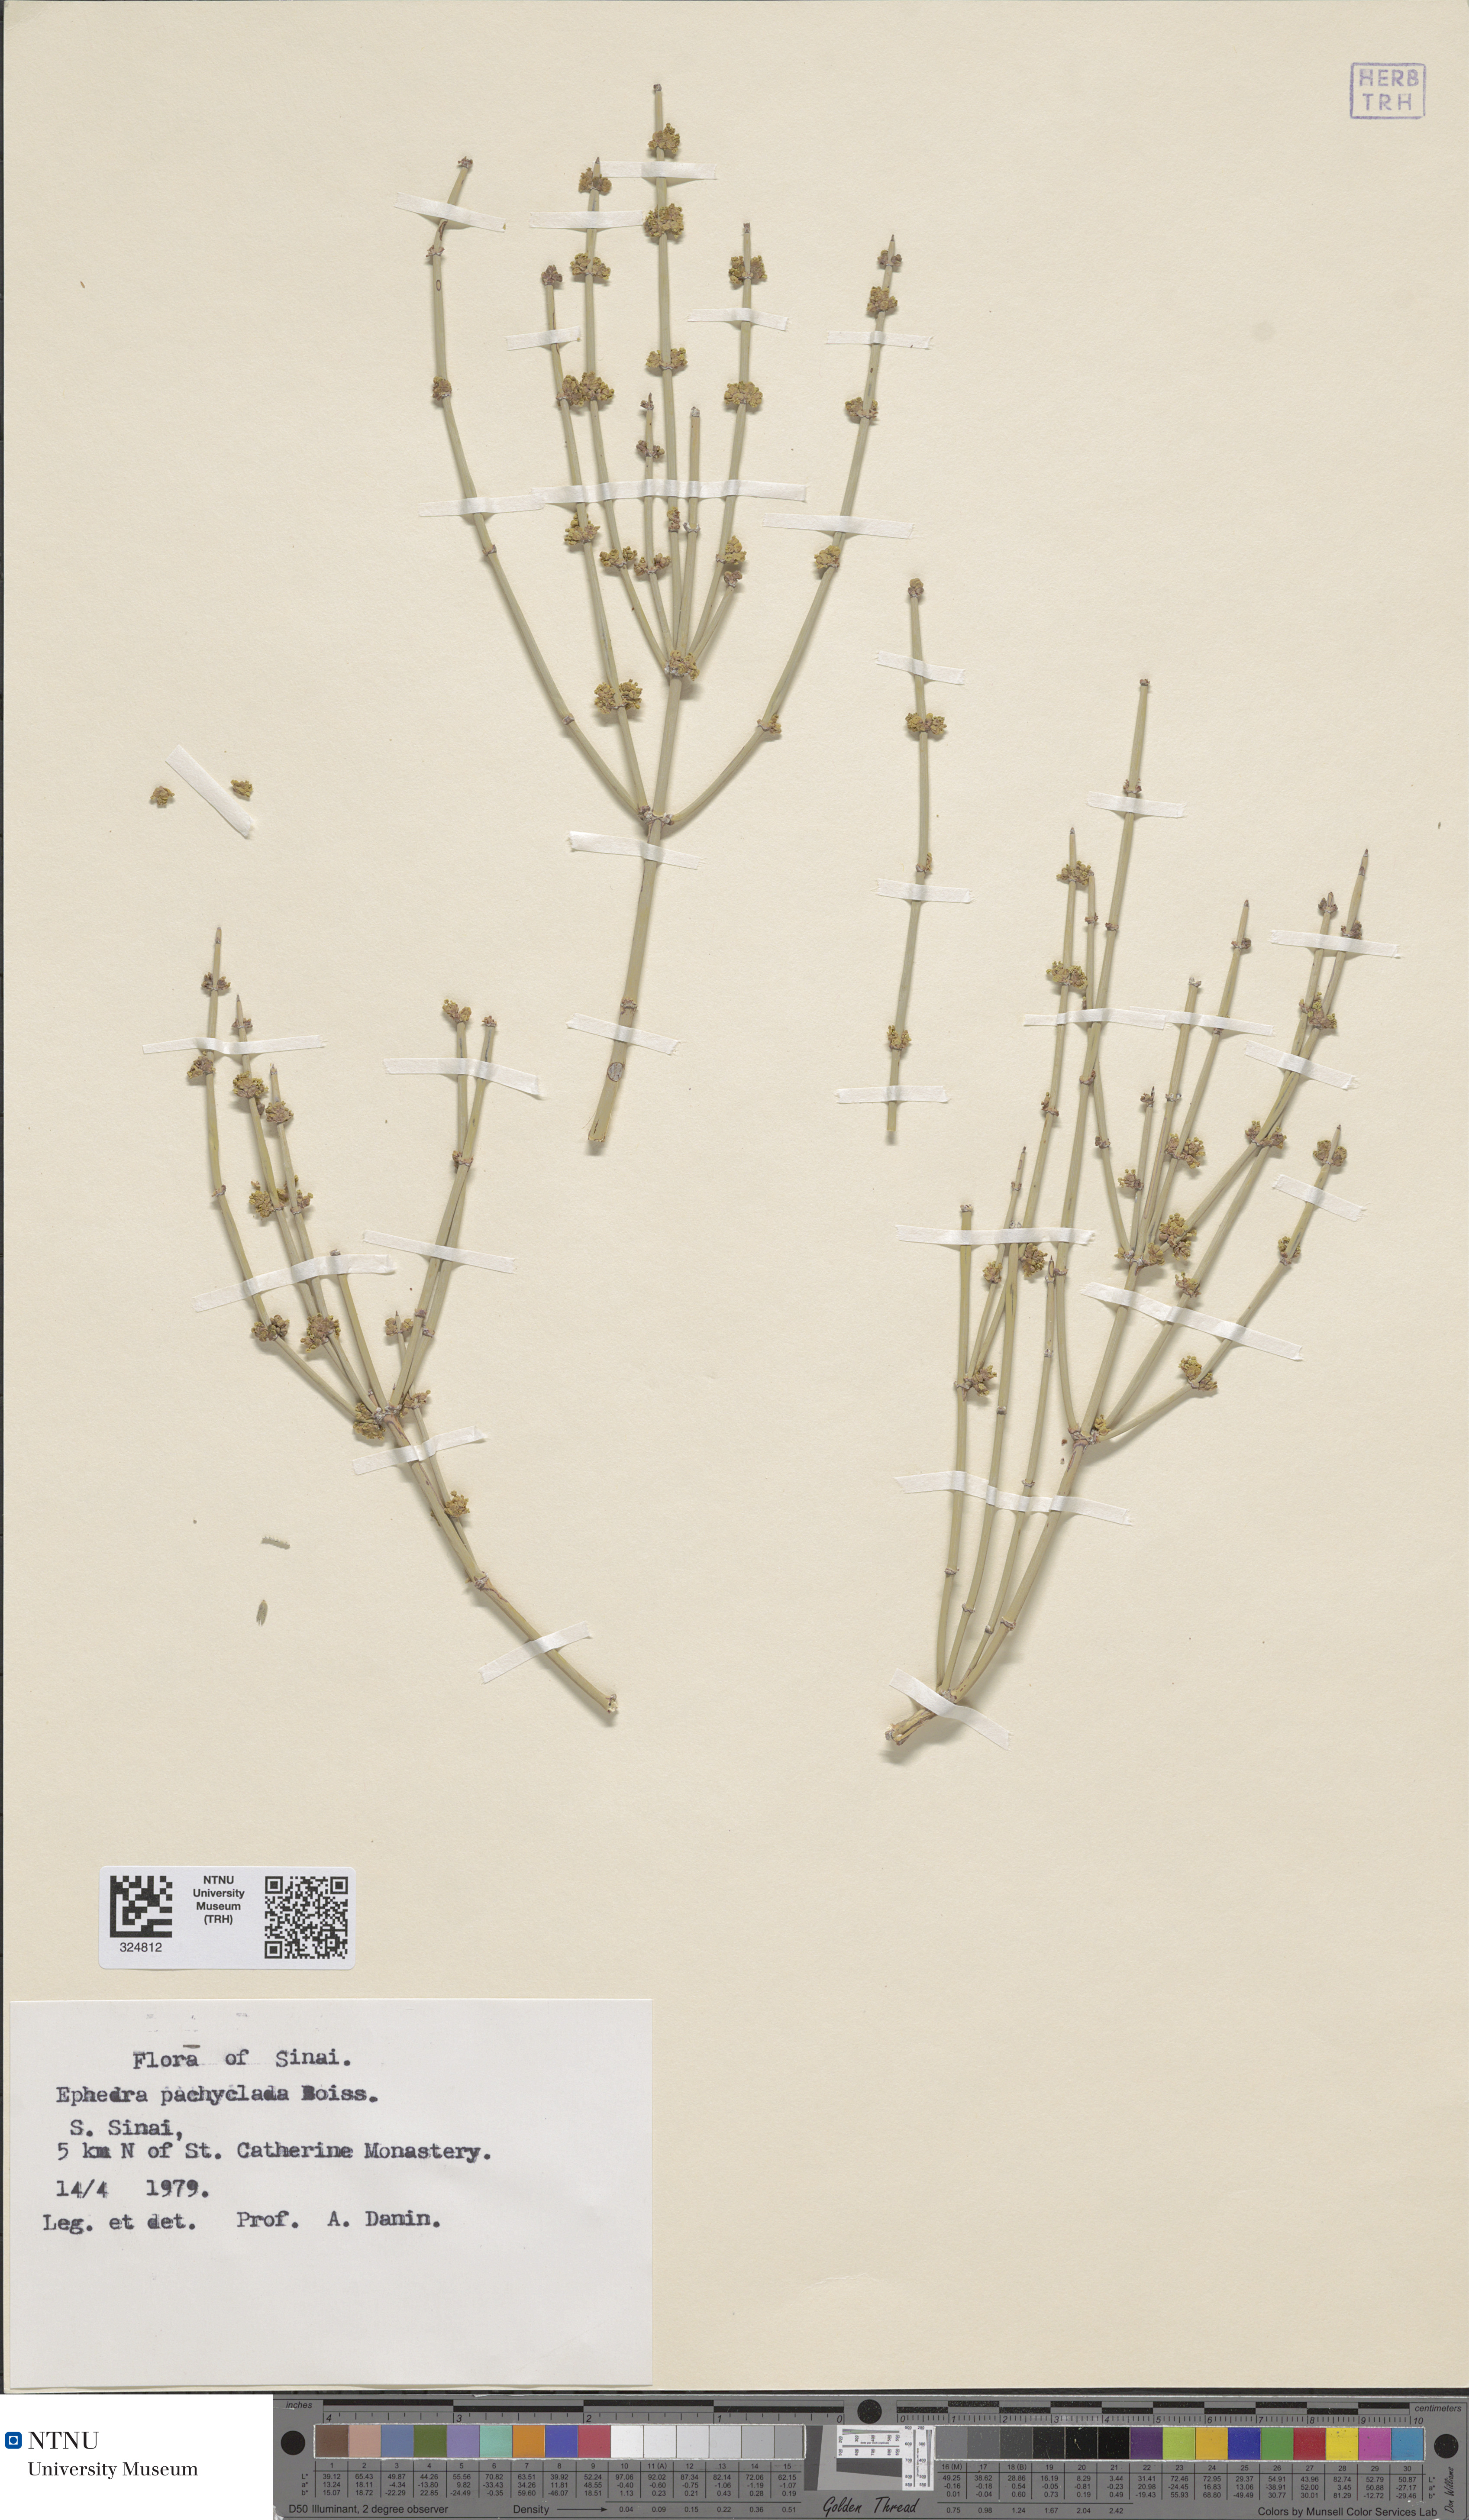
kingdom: Plantae
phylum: Tracheophyta
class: Gnetopsida
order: Ephedrales
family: Ephedraceae
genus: Ephedra
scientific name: Ephedra pachyclada
